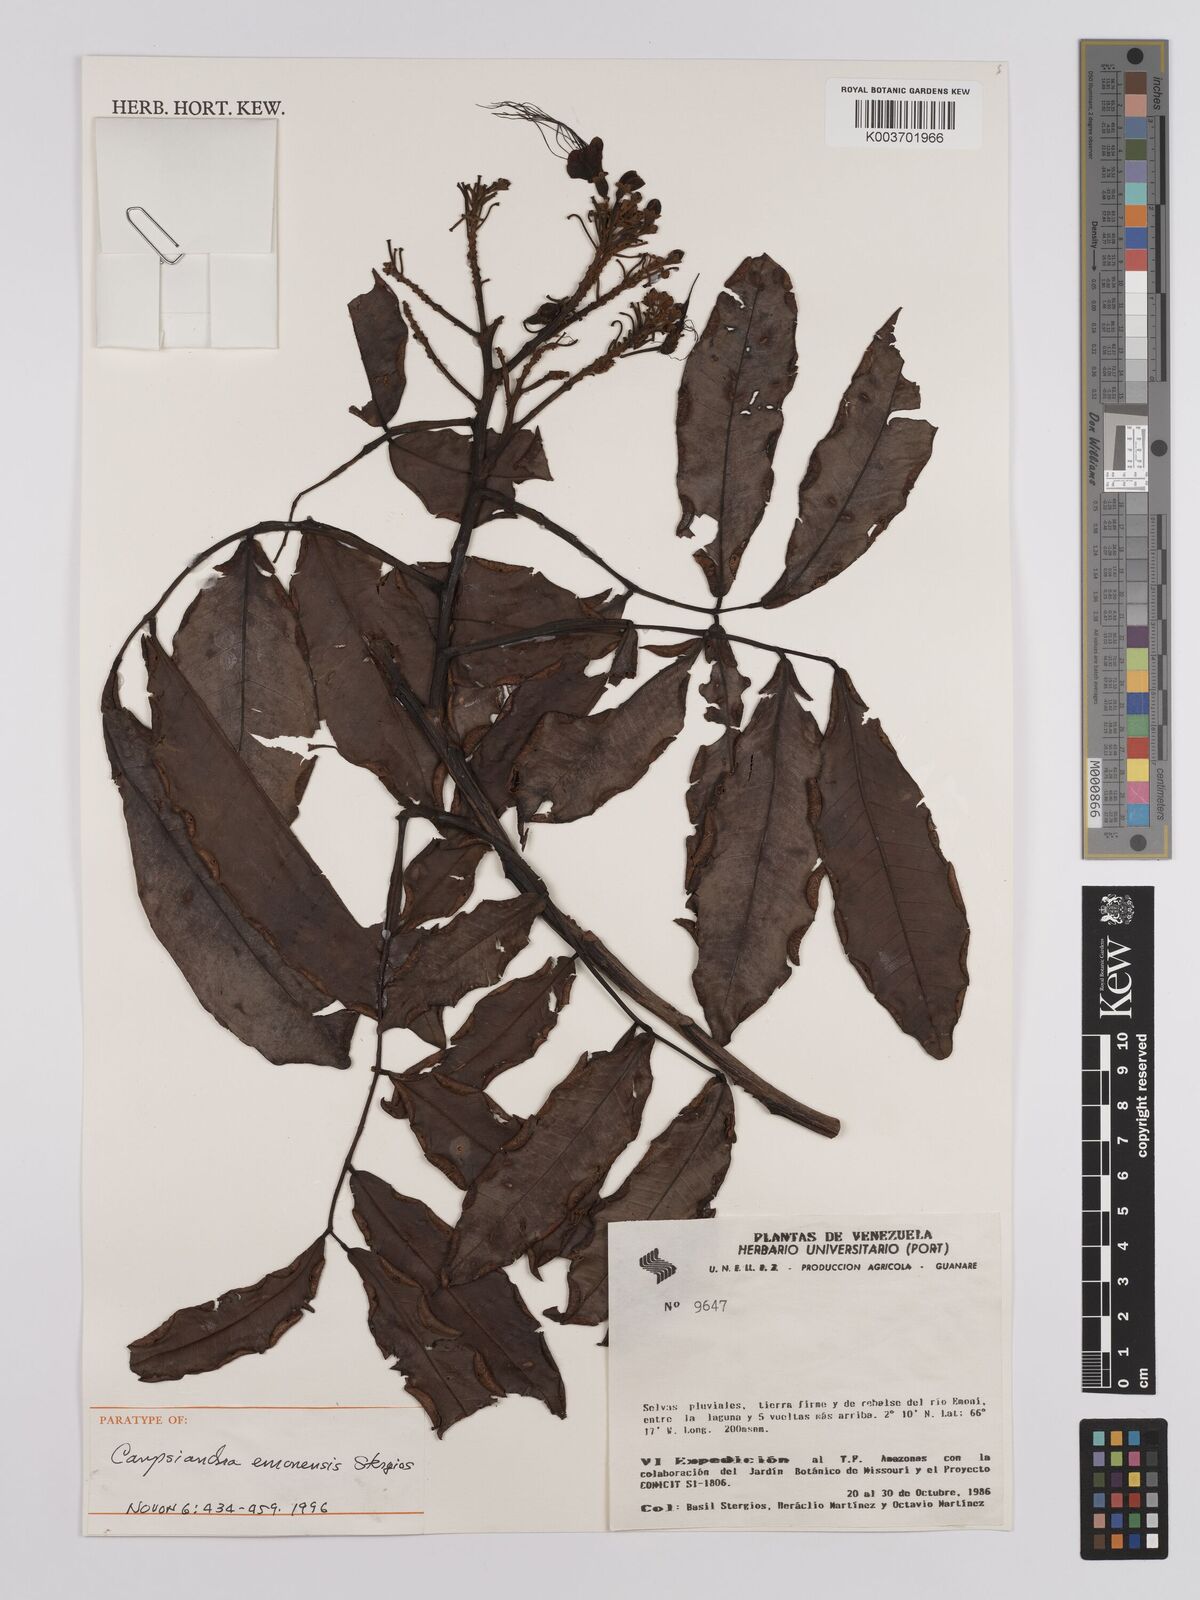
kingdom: Plantae
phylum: Tracheophyta
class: Magnoliopsida
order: Fabales
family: Fabaceae
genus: Campsiandra
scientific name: Campsiandra emonensis
